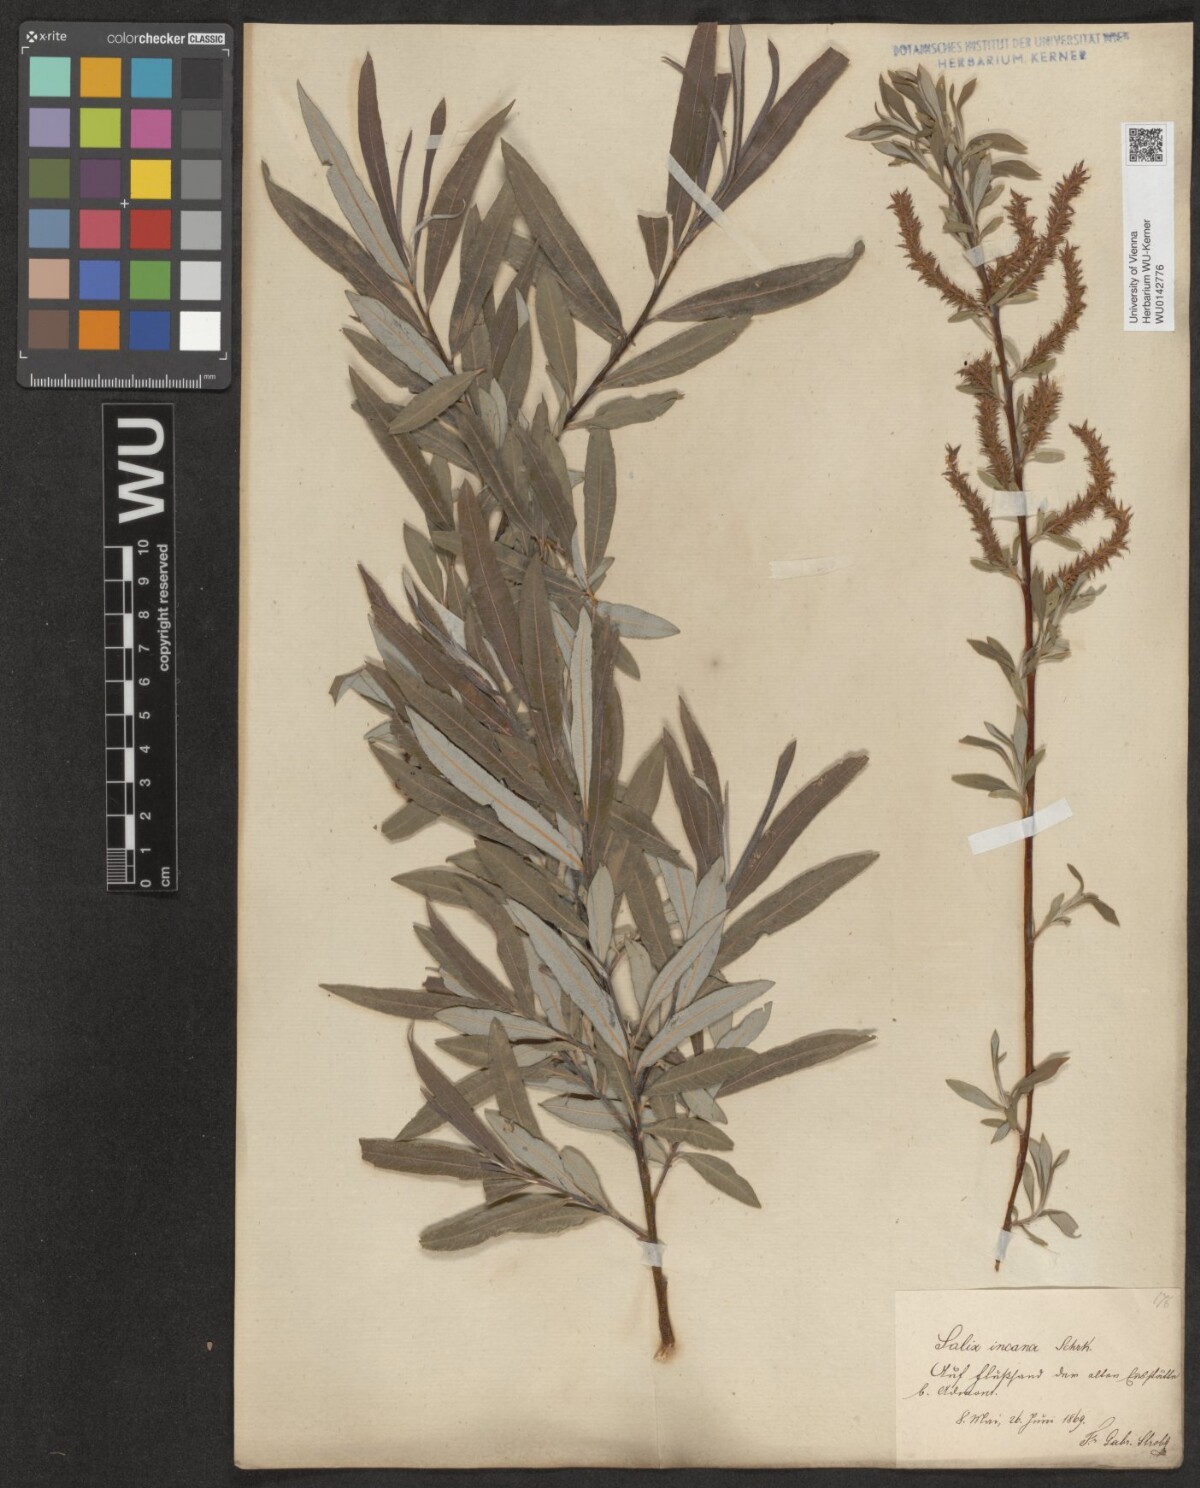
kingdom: Plantae
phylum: Tracheophyta
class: Magnoliopsida
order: Malpighiales
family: Salicaceae
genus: Salix
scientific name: Salix eleagnos
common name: Elaeagnus willow
